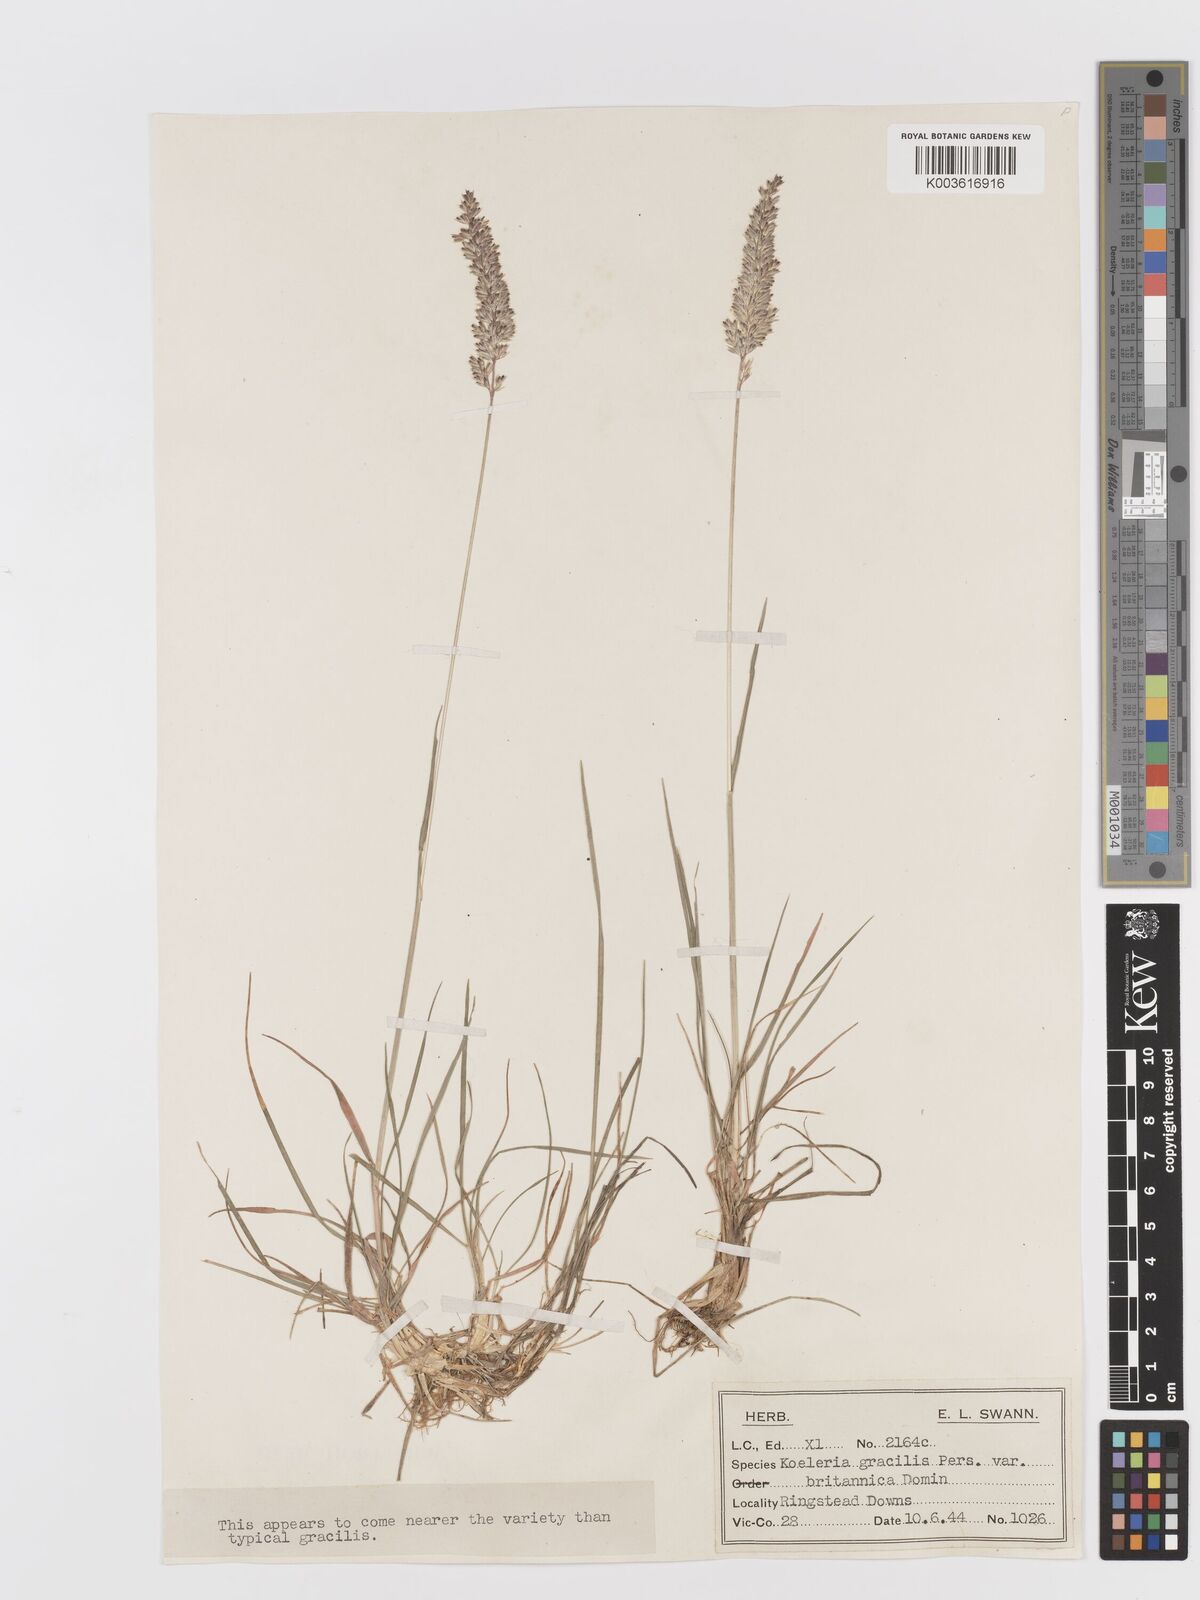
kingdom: Plantae
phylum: Tracheophyta
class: Liliopsida
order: Poales
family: Poaceae
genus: Koeleria
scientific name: Koeleria macrantha
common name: Crested hair-grass
